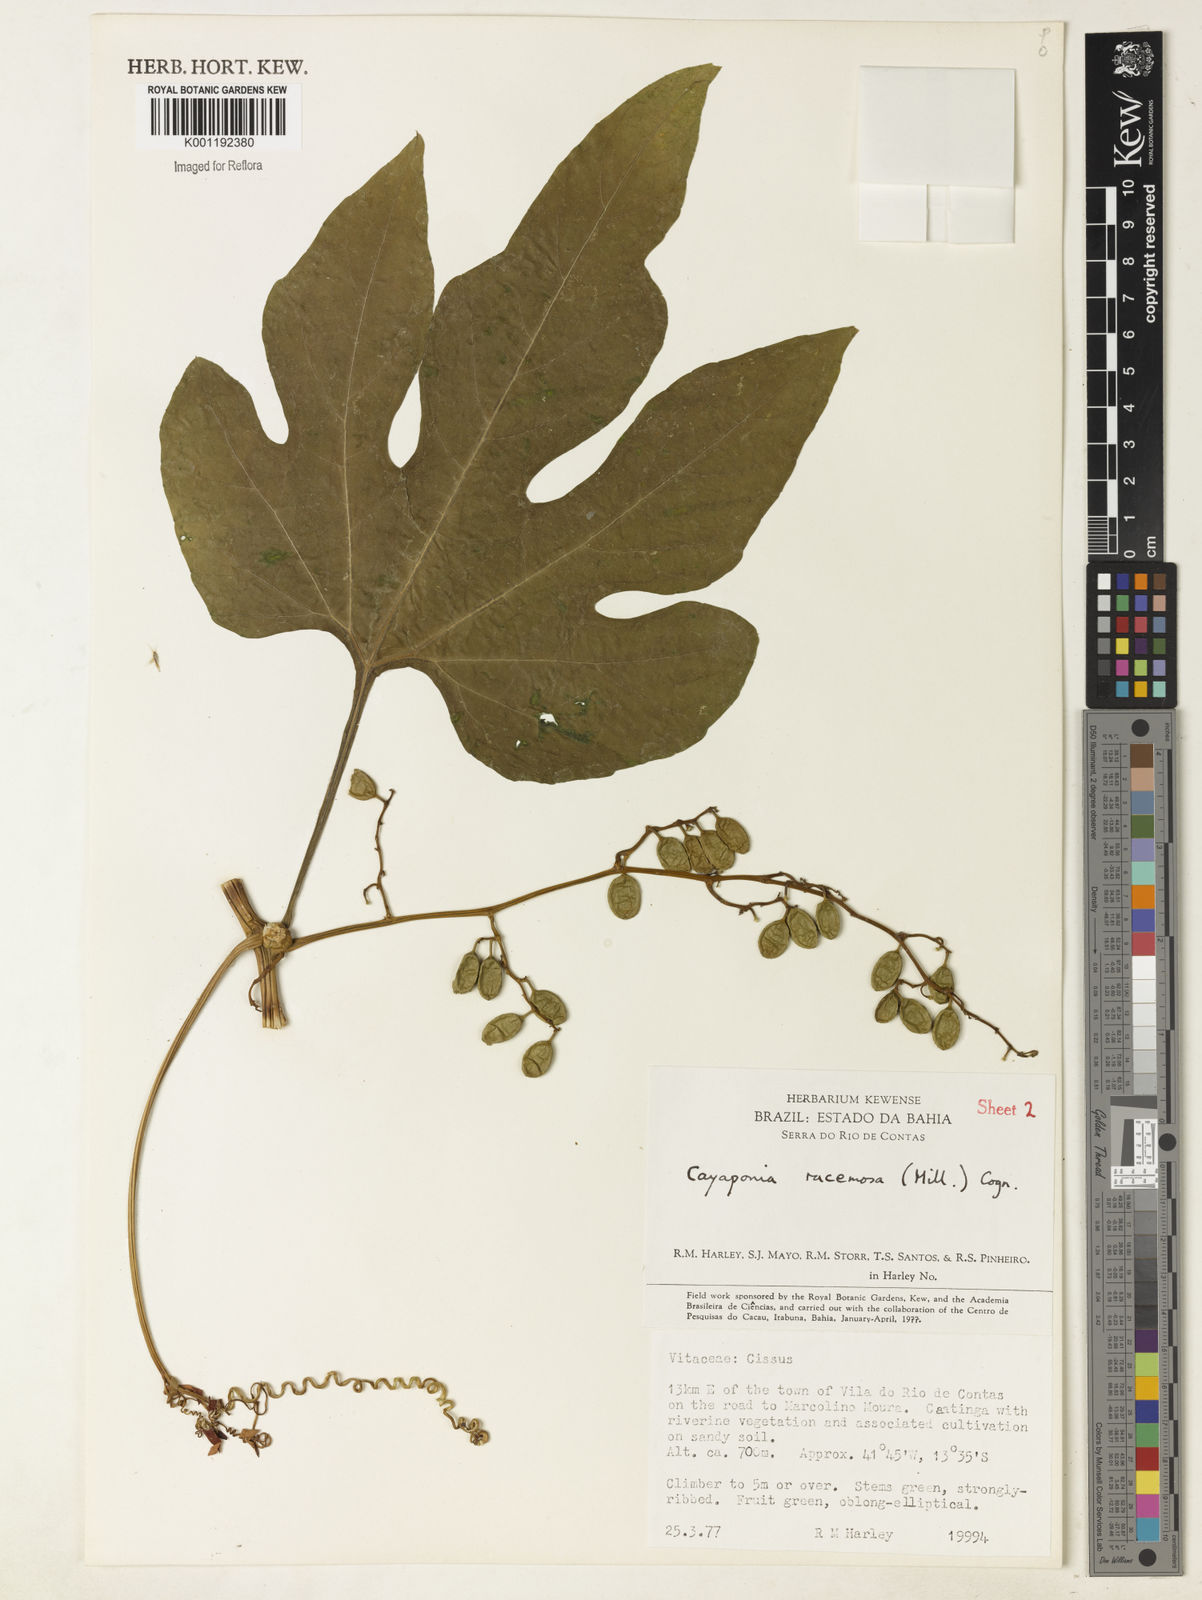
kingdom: Plantae
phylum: Tracheophyta
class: Magnoliopsida
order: Cucurbitales
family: Cucurbitaceae
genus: Cayaponia
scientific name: Cayaponia racemosa
